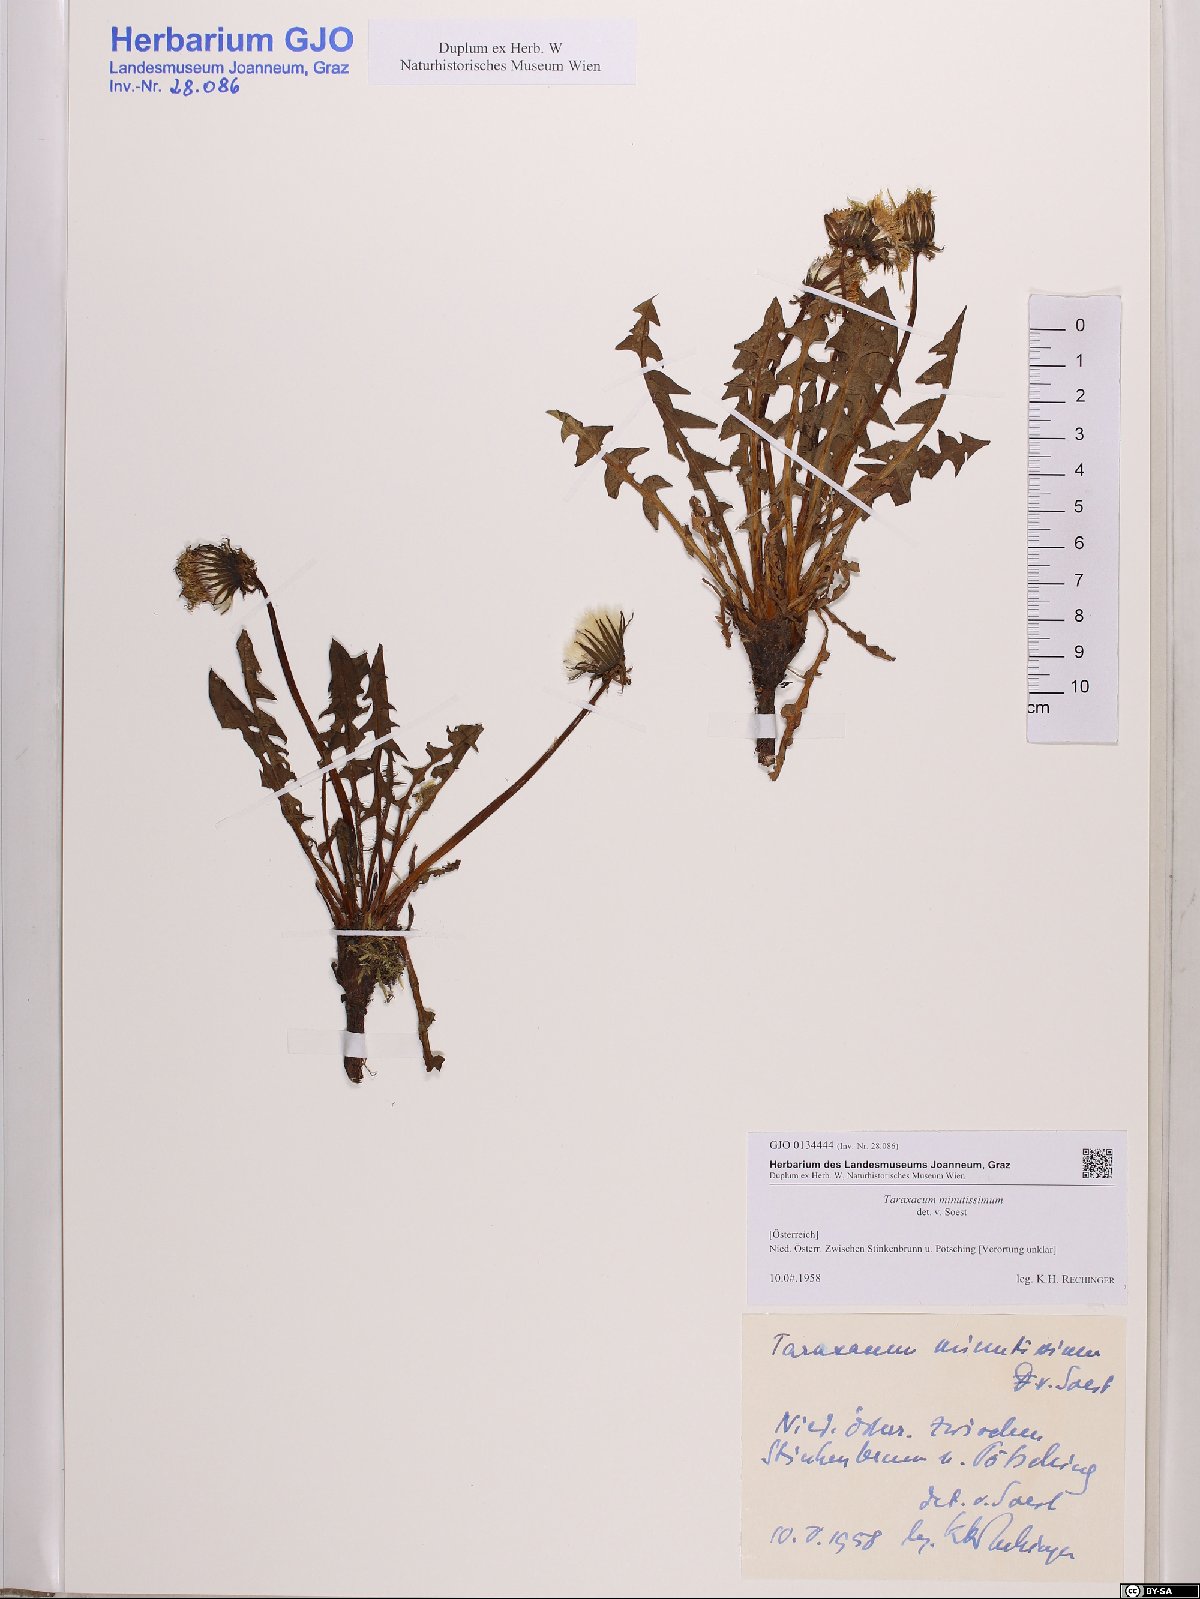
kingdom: Plantae
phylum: Tracheophyta
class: Magnoliopsida
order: Asterales
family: Asteraceae
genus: Taraxacum
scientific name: Taraxacum minutissimum
